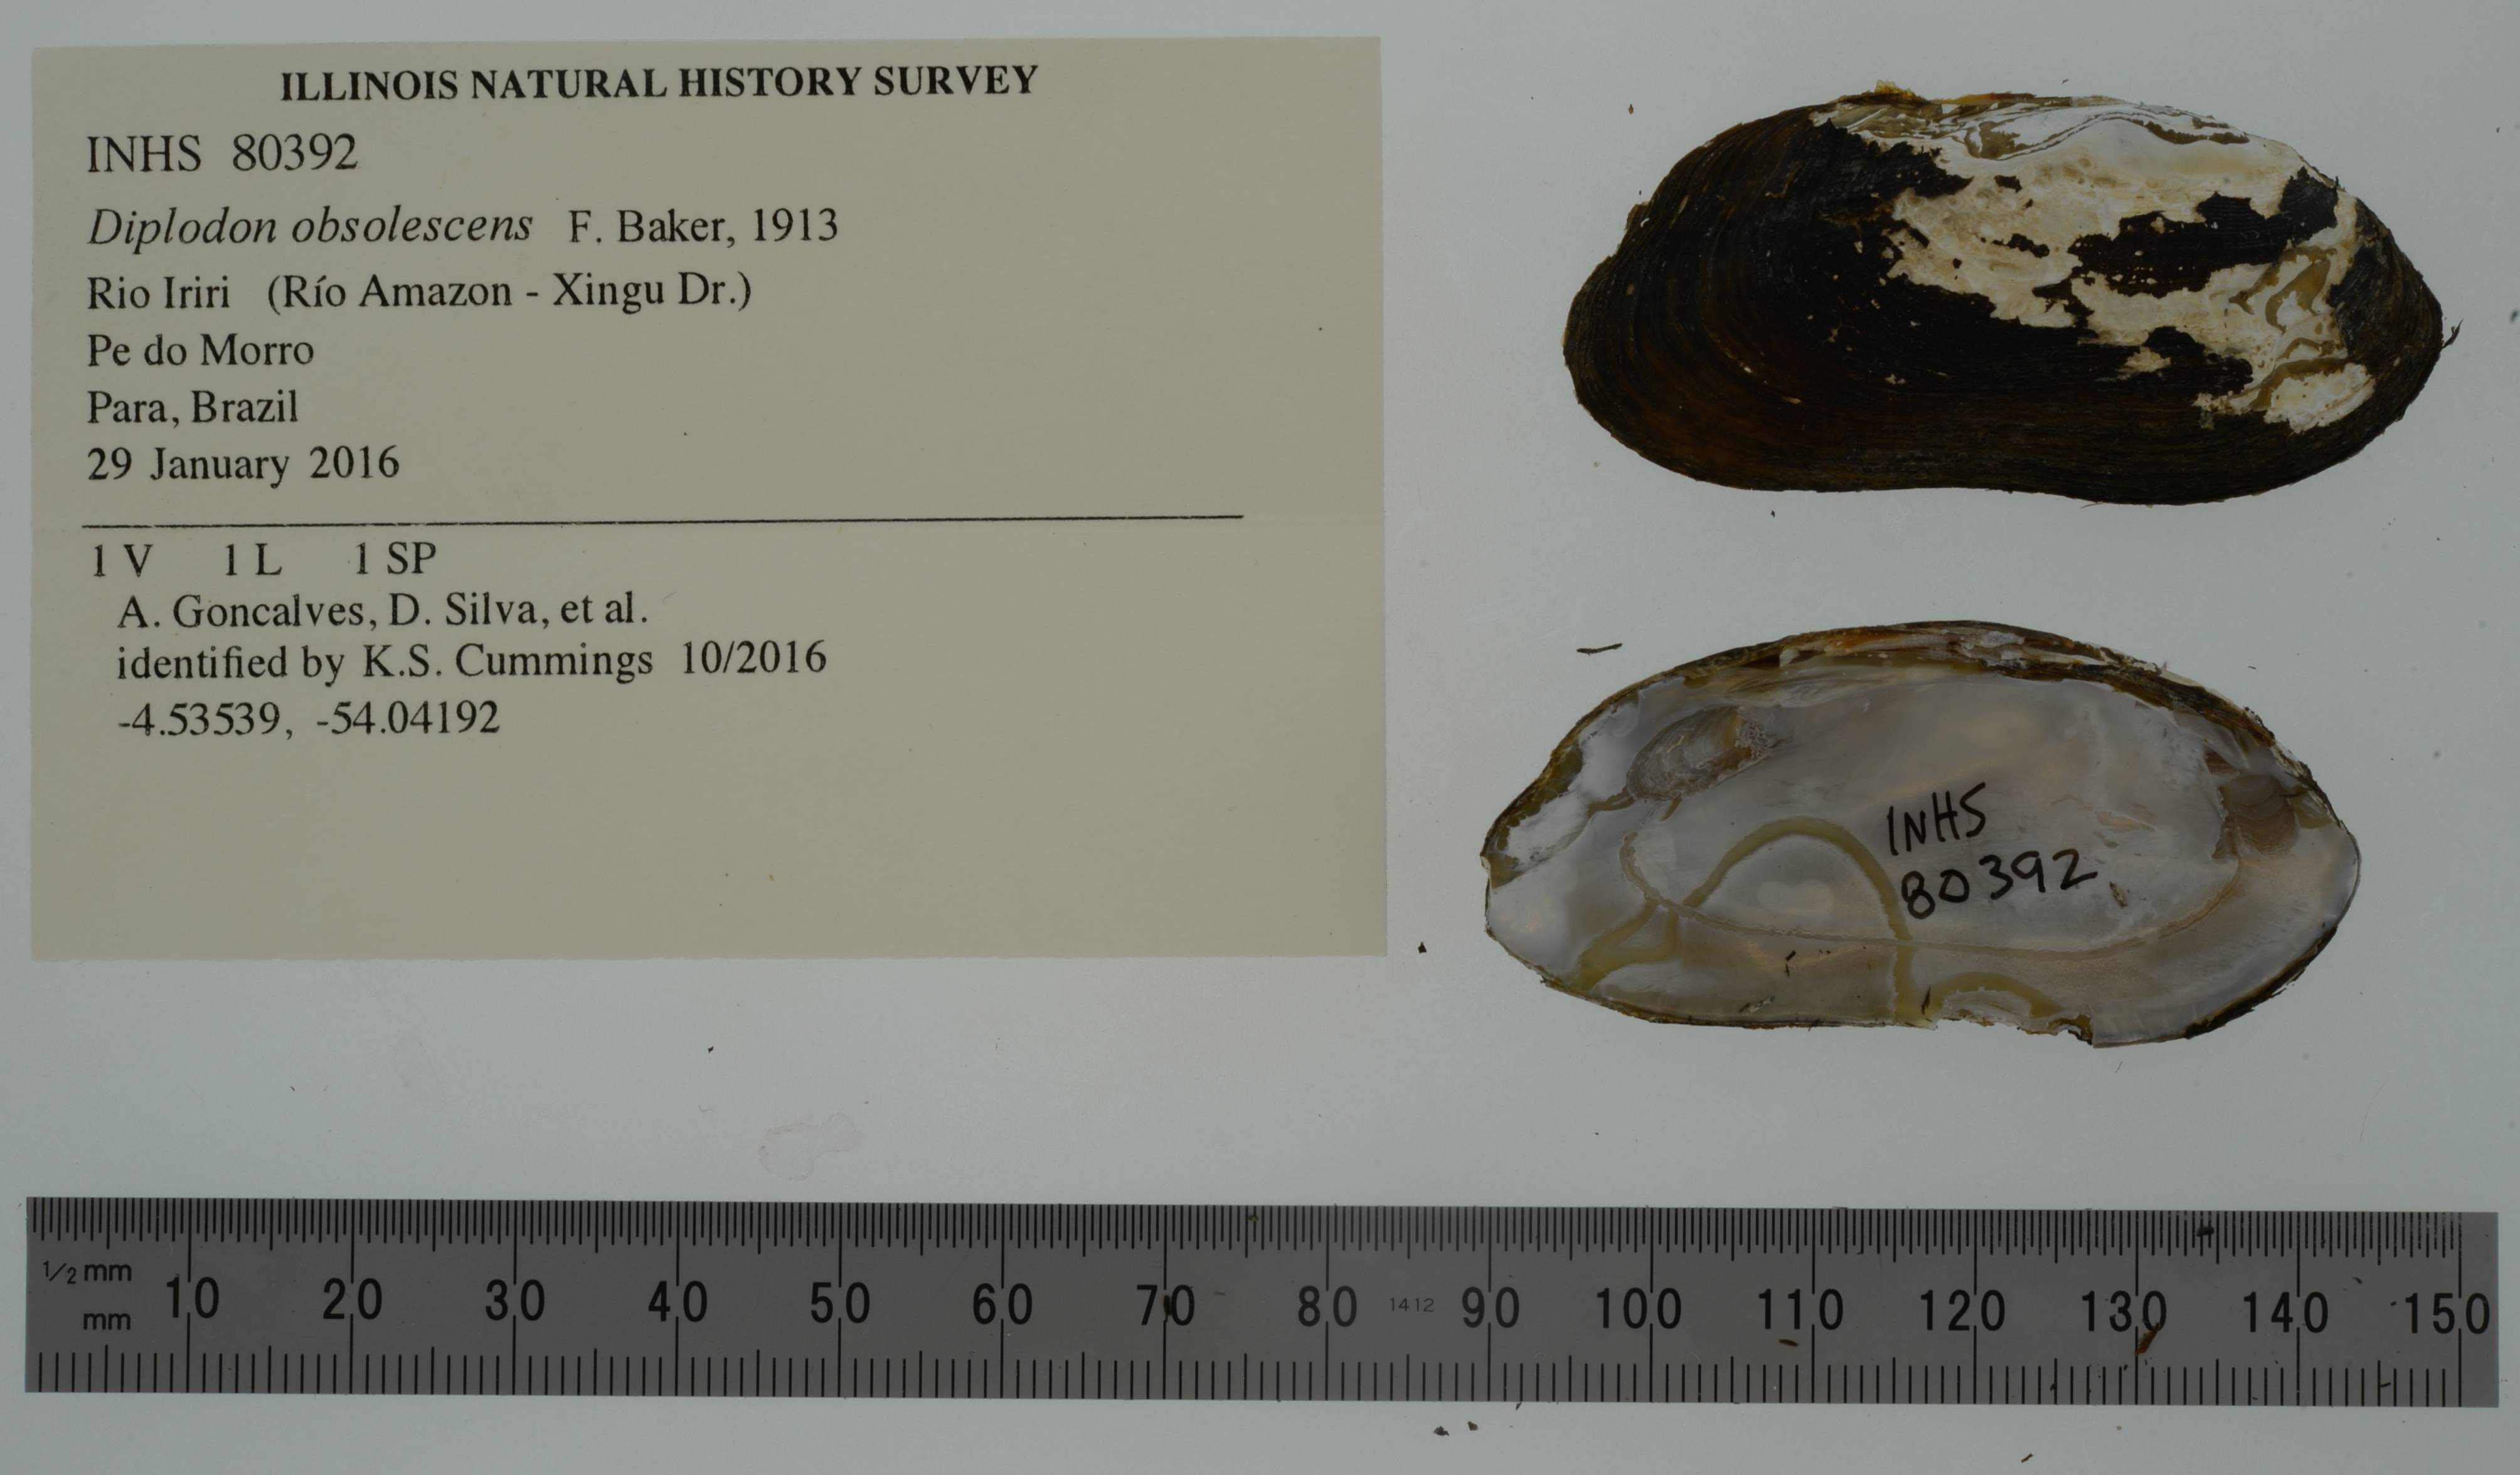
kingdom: Animalia
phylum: Mollusca
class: Bivalvia
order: Unionida
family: Hyriidae
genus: Diplodon
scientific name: Diplodon obsolescens
